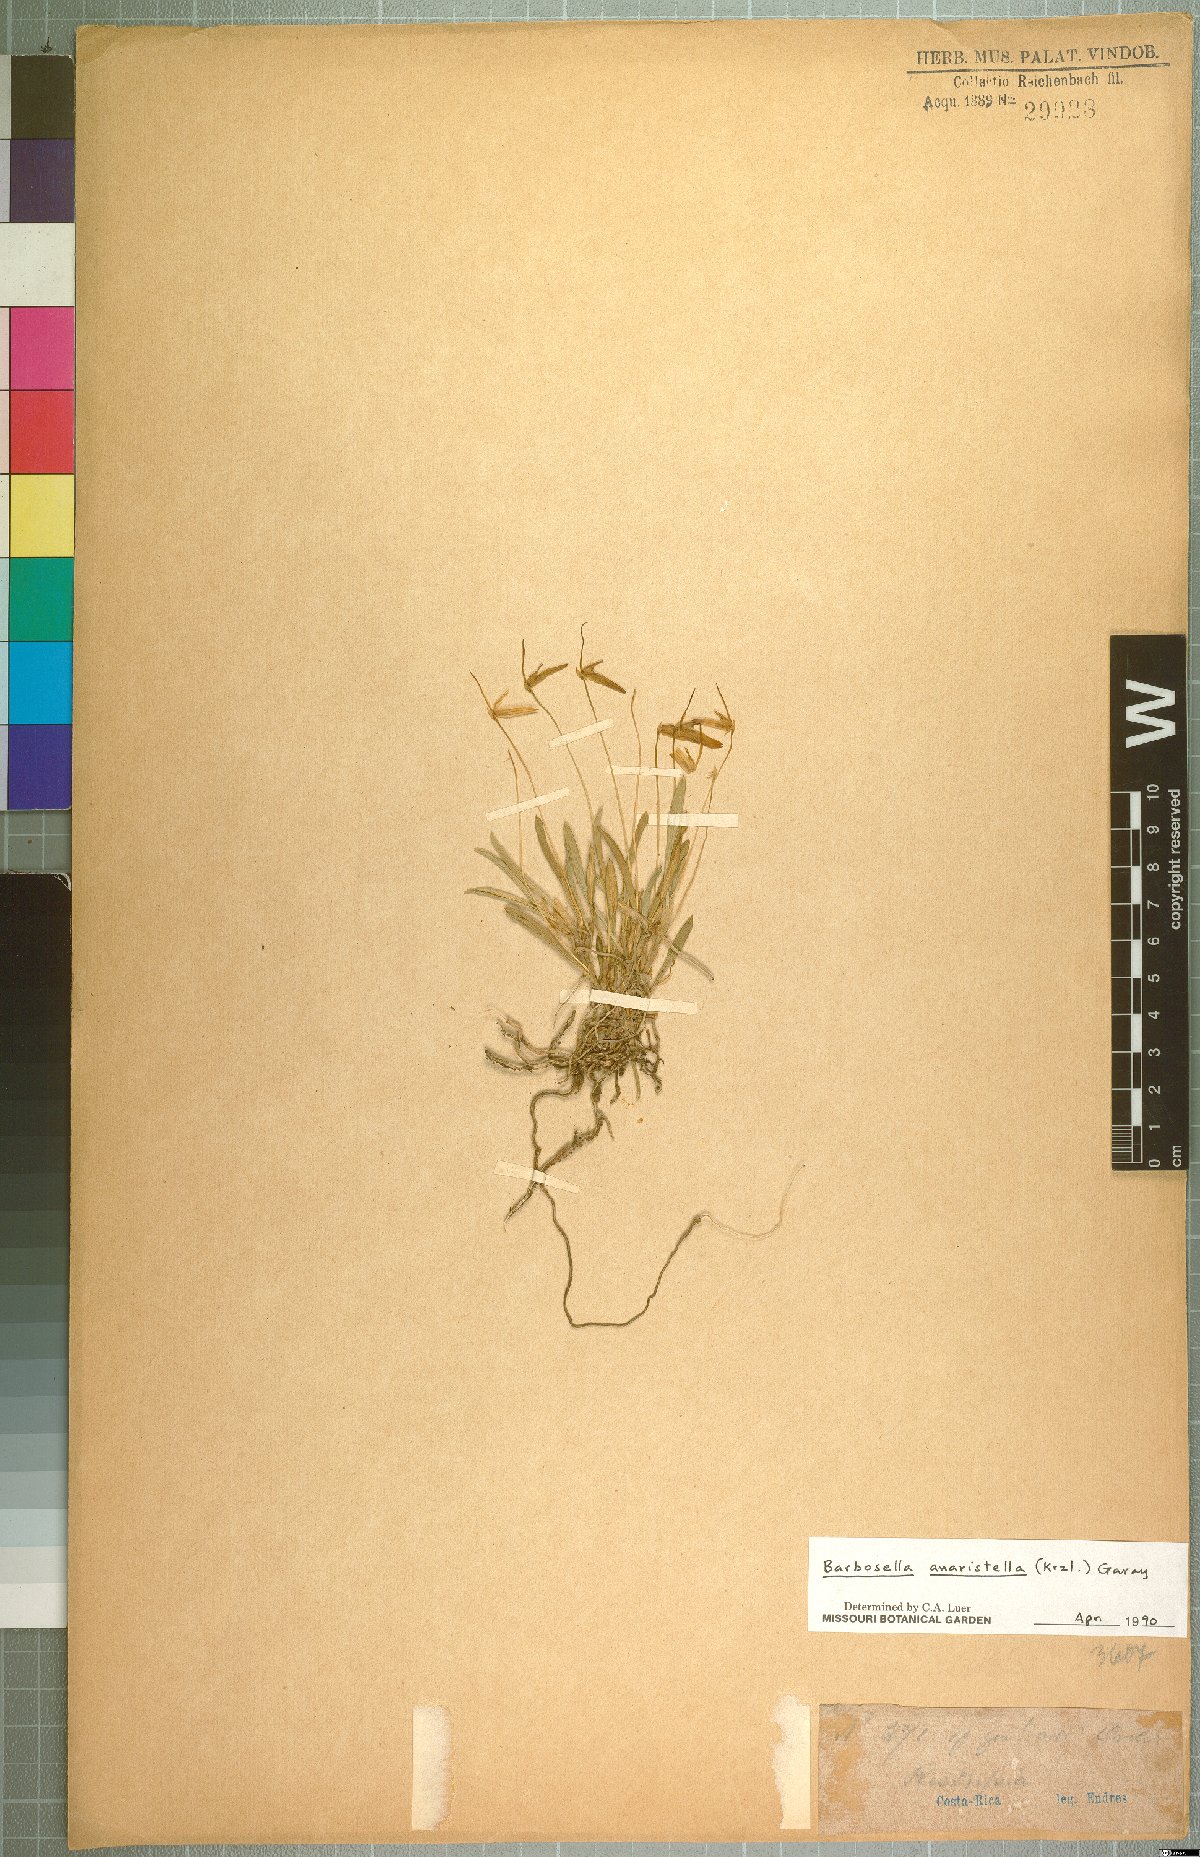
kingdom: Plantae
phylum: Tracheophyta
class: Liliopsida
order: Asparagales
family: Orchidaceae
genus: Barbosella
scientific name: Barbosella dolichorhiza
